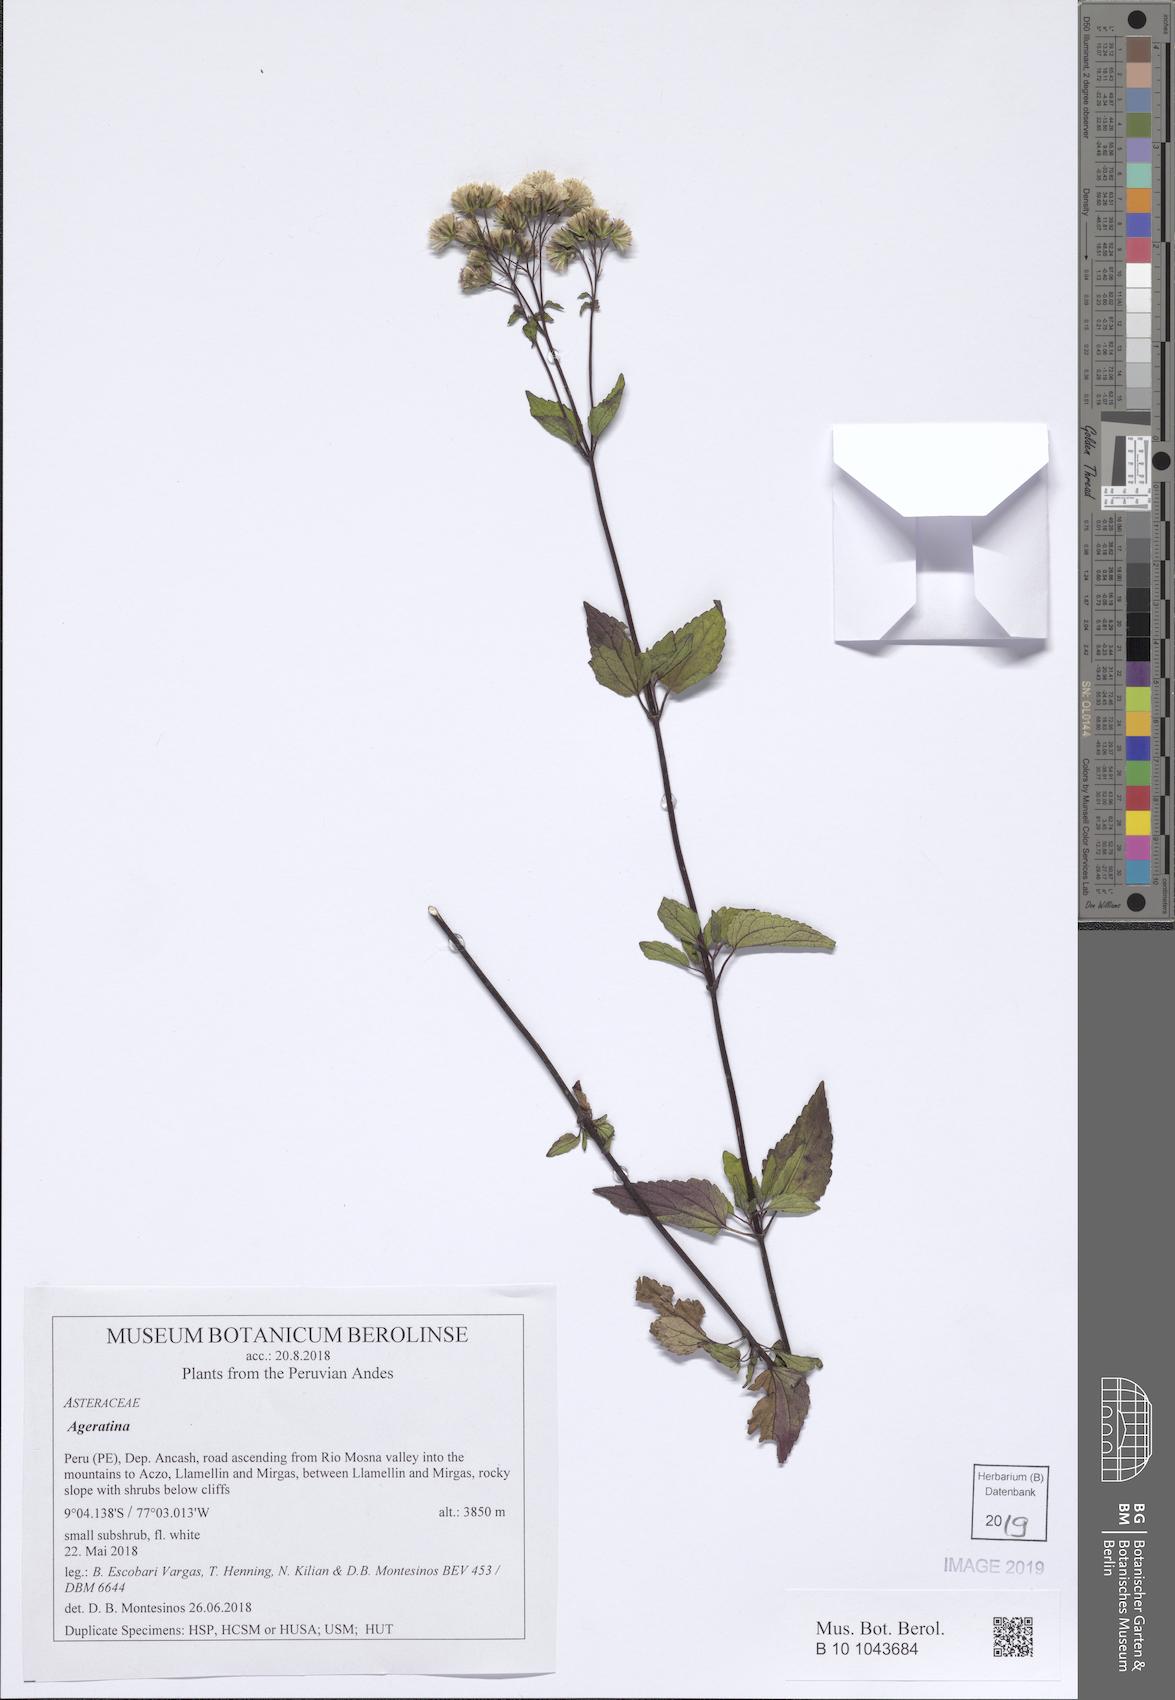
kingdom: Plantae
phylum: Tracheophyta
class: Magnoliopsida
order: Asterales
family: Asteraceae
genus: Ageratina
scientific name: Ageratina
